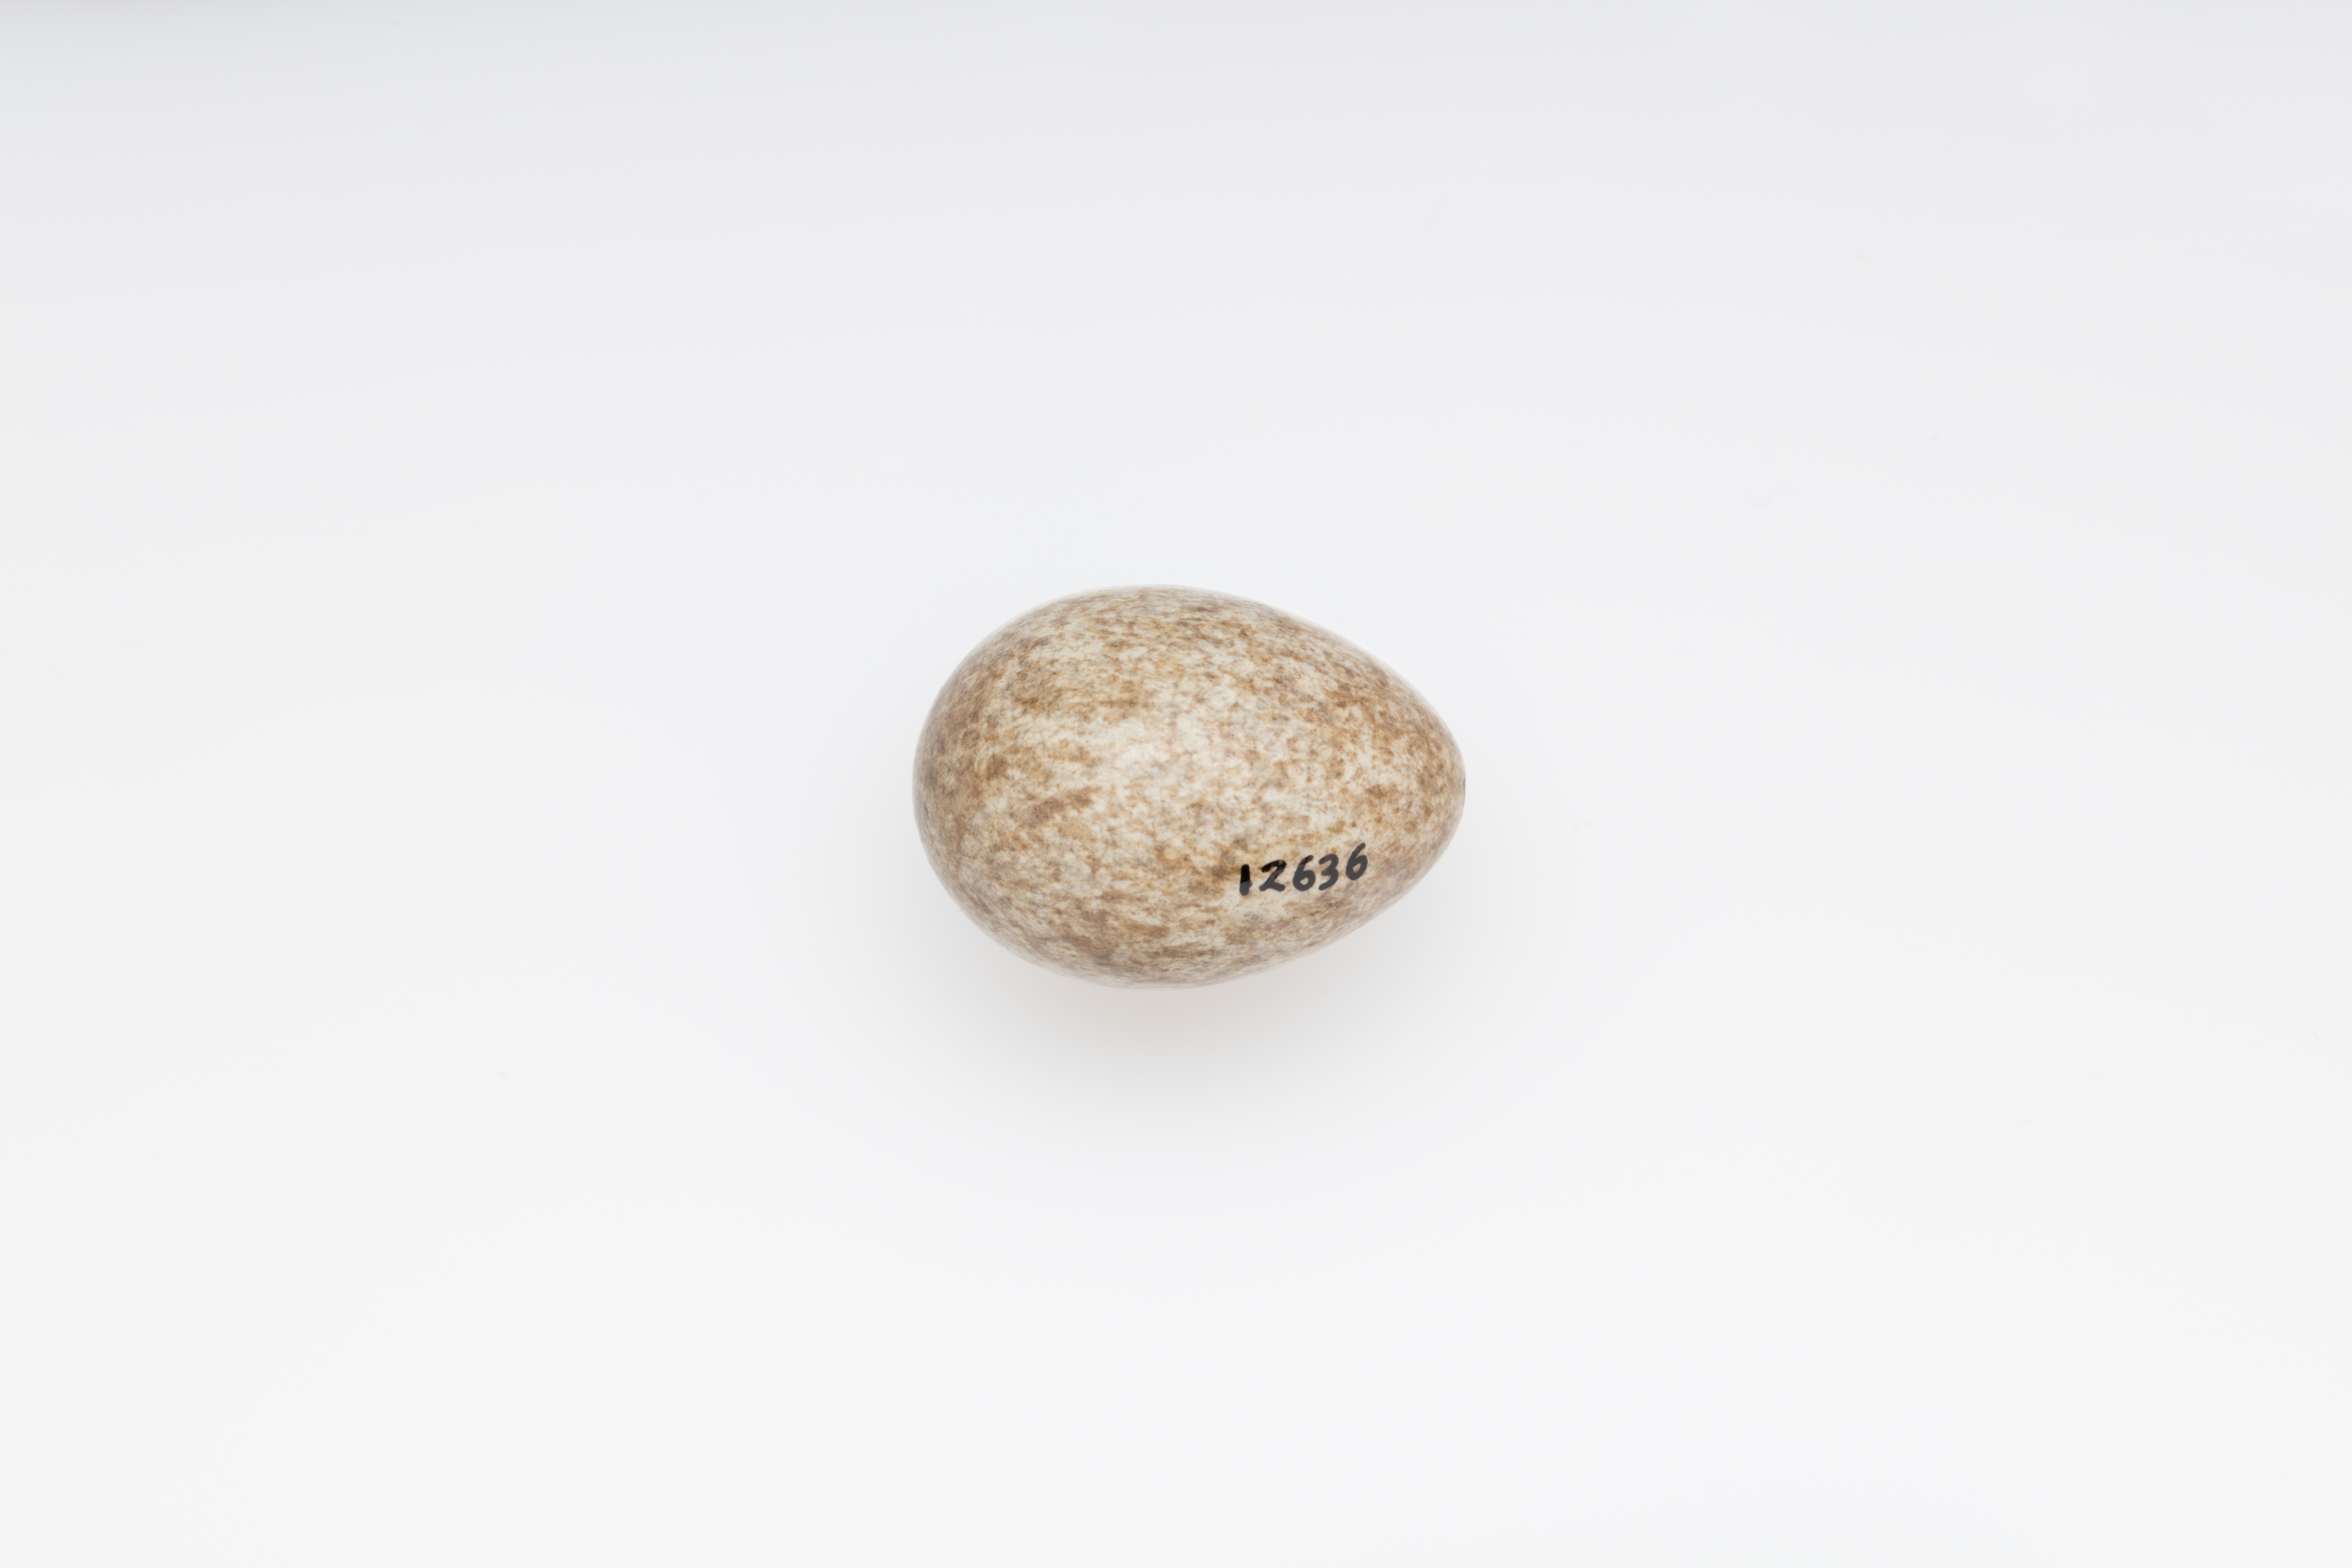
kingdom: Animalia
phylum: Chordata
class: Aves
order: Passeriformes
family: Alaudidae
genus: Mirafra
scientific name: Mirafra javanica
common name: Horsfield's bush lark
